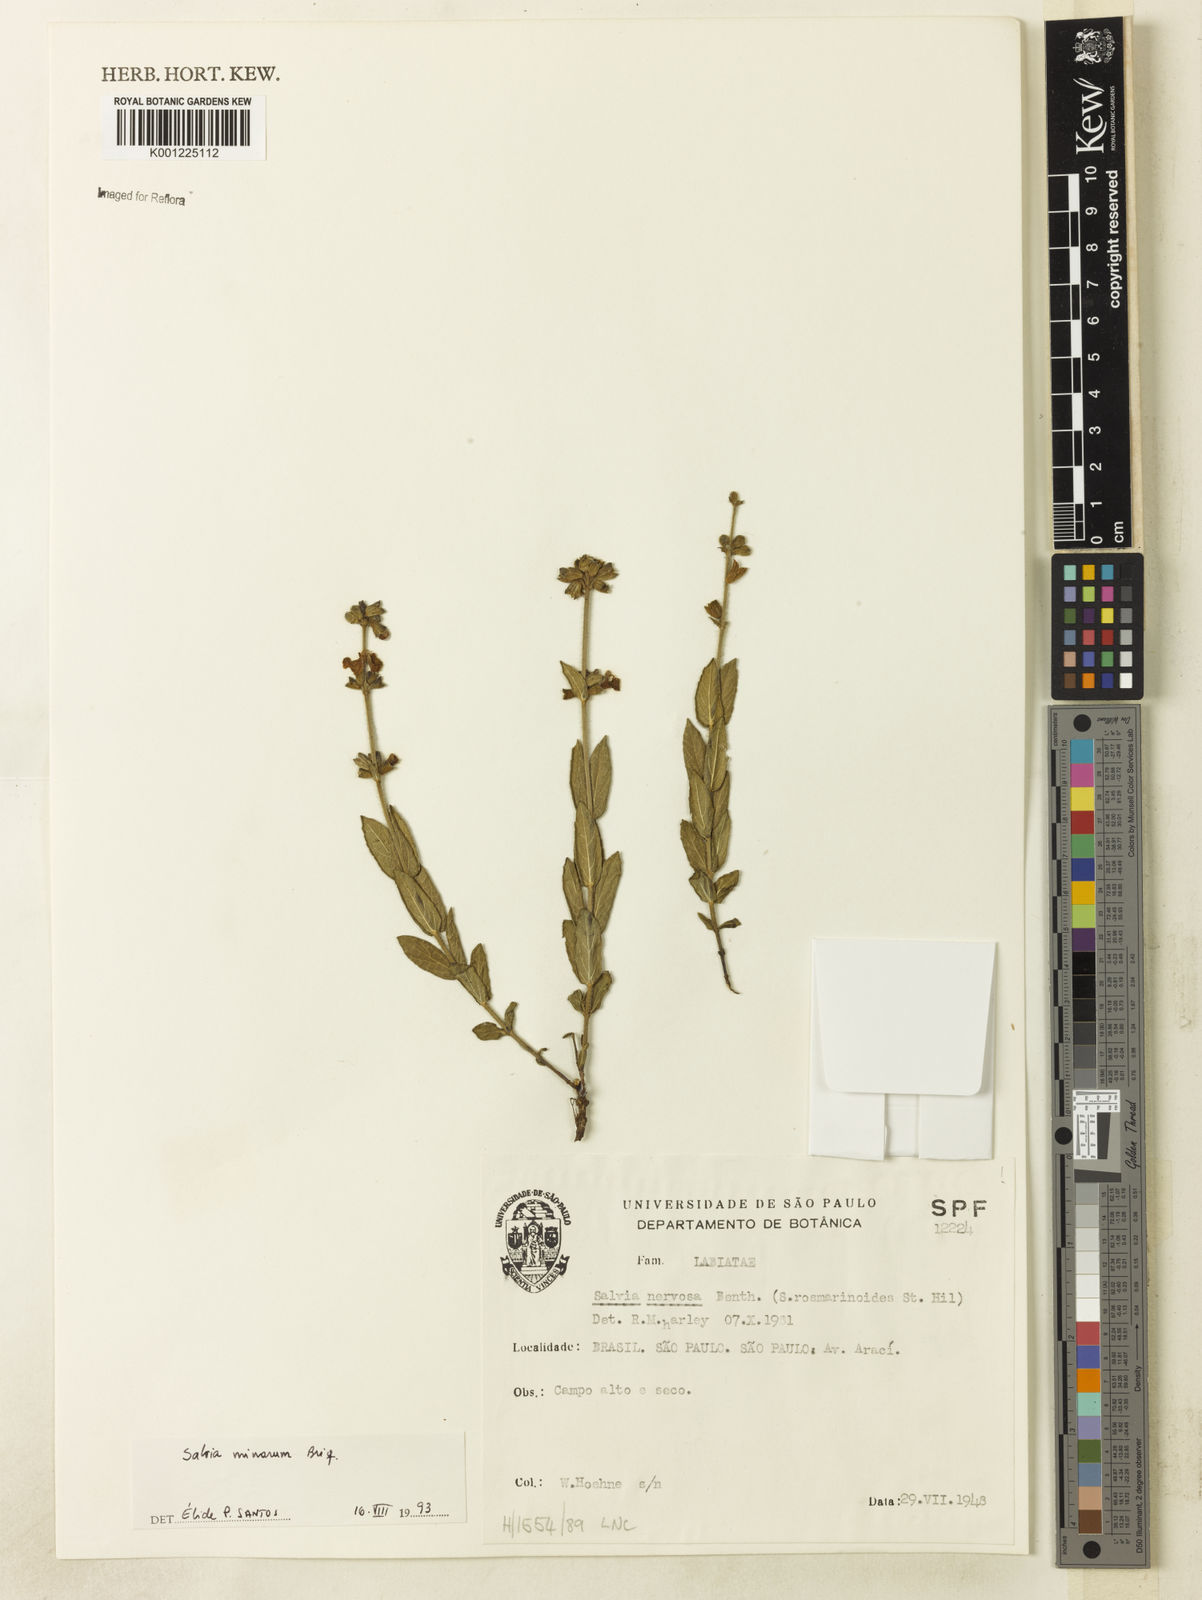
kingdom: Plantae
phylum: Tracheophyta
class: Magnoliopsida
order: Lamiales
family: Lamiaceae
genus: Salvia
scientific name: Salvia minarum
